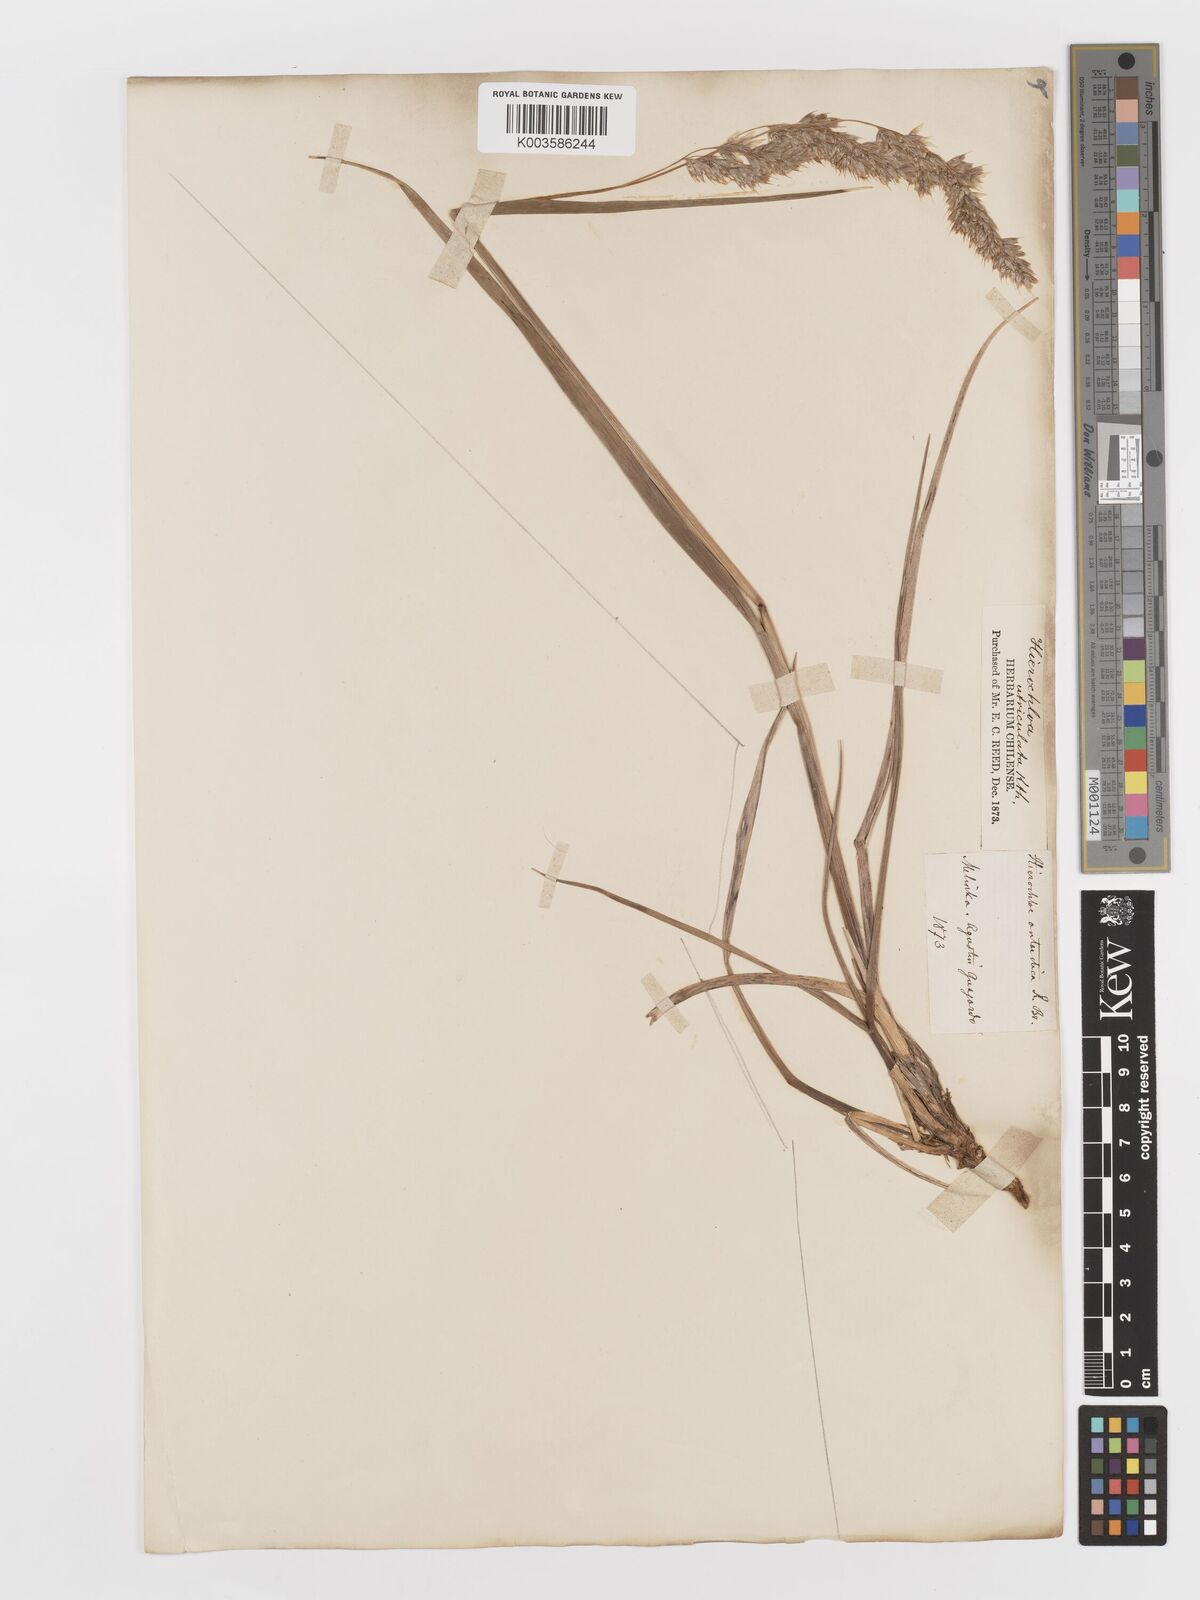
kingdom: Plantae
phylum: Tracheophyta
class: Liliopsida
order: Poales
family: Poaceae
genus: Anthoxanthum
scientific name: Anthoxanthum redolens
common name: Sweet holy grass
